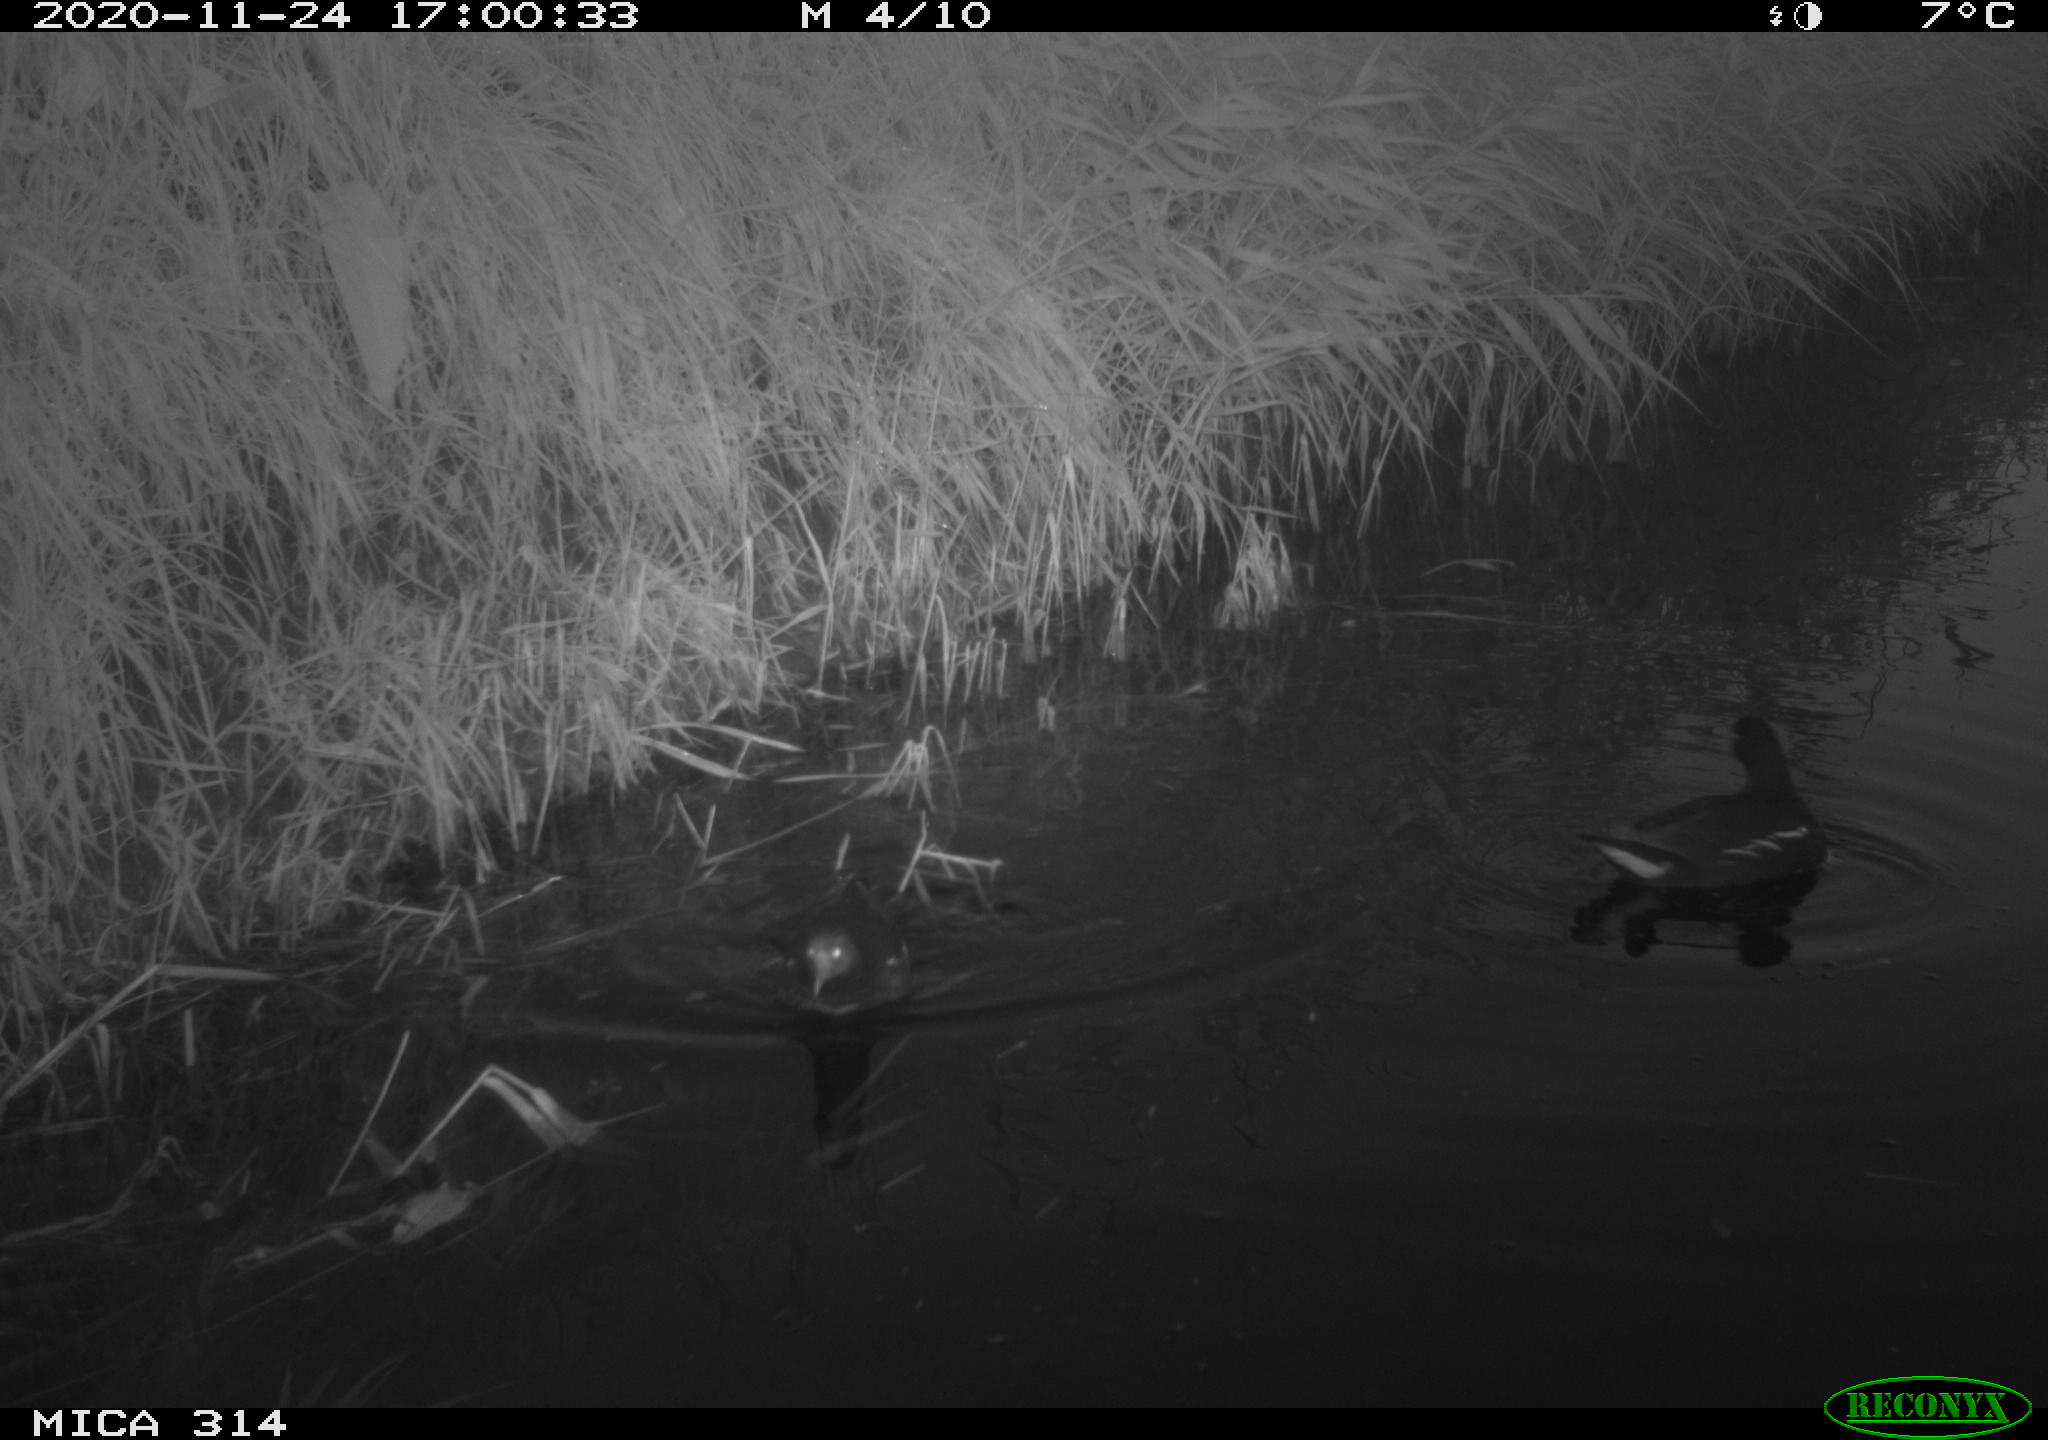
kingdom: Animalia
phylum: Chordata
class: Aves
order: Gruiformes
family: Rallidae
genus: Gallinula
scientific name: Gallinula chloropus
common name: Common moorhen
